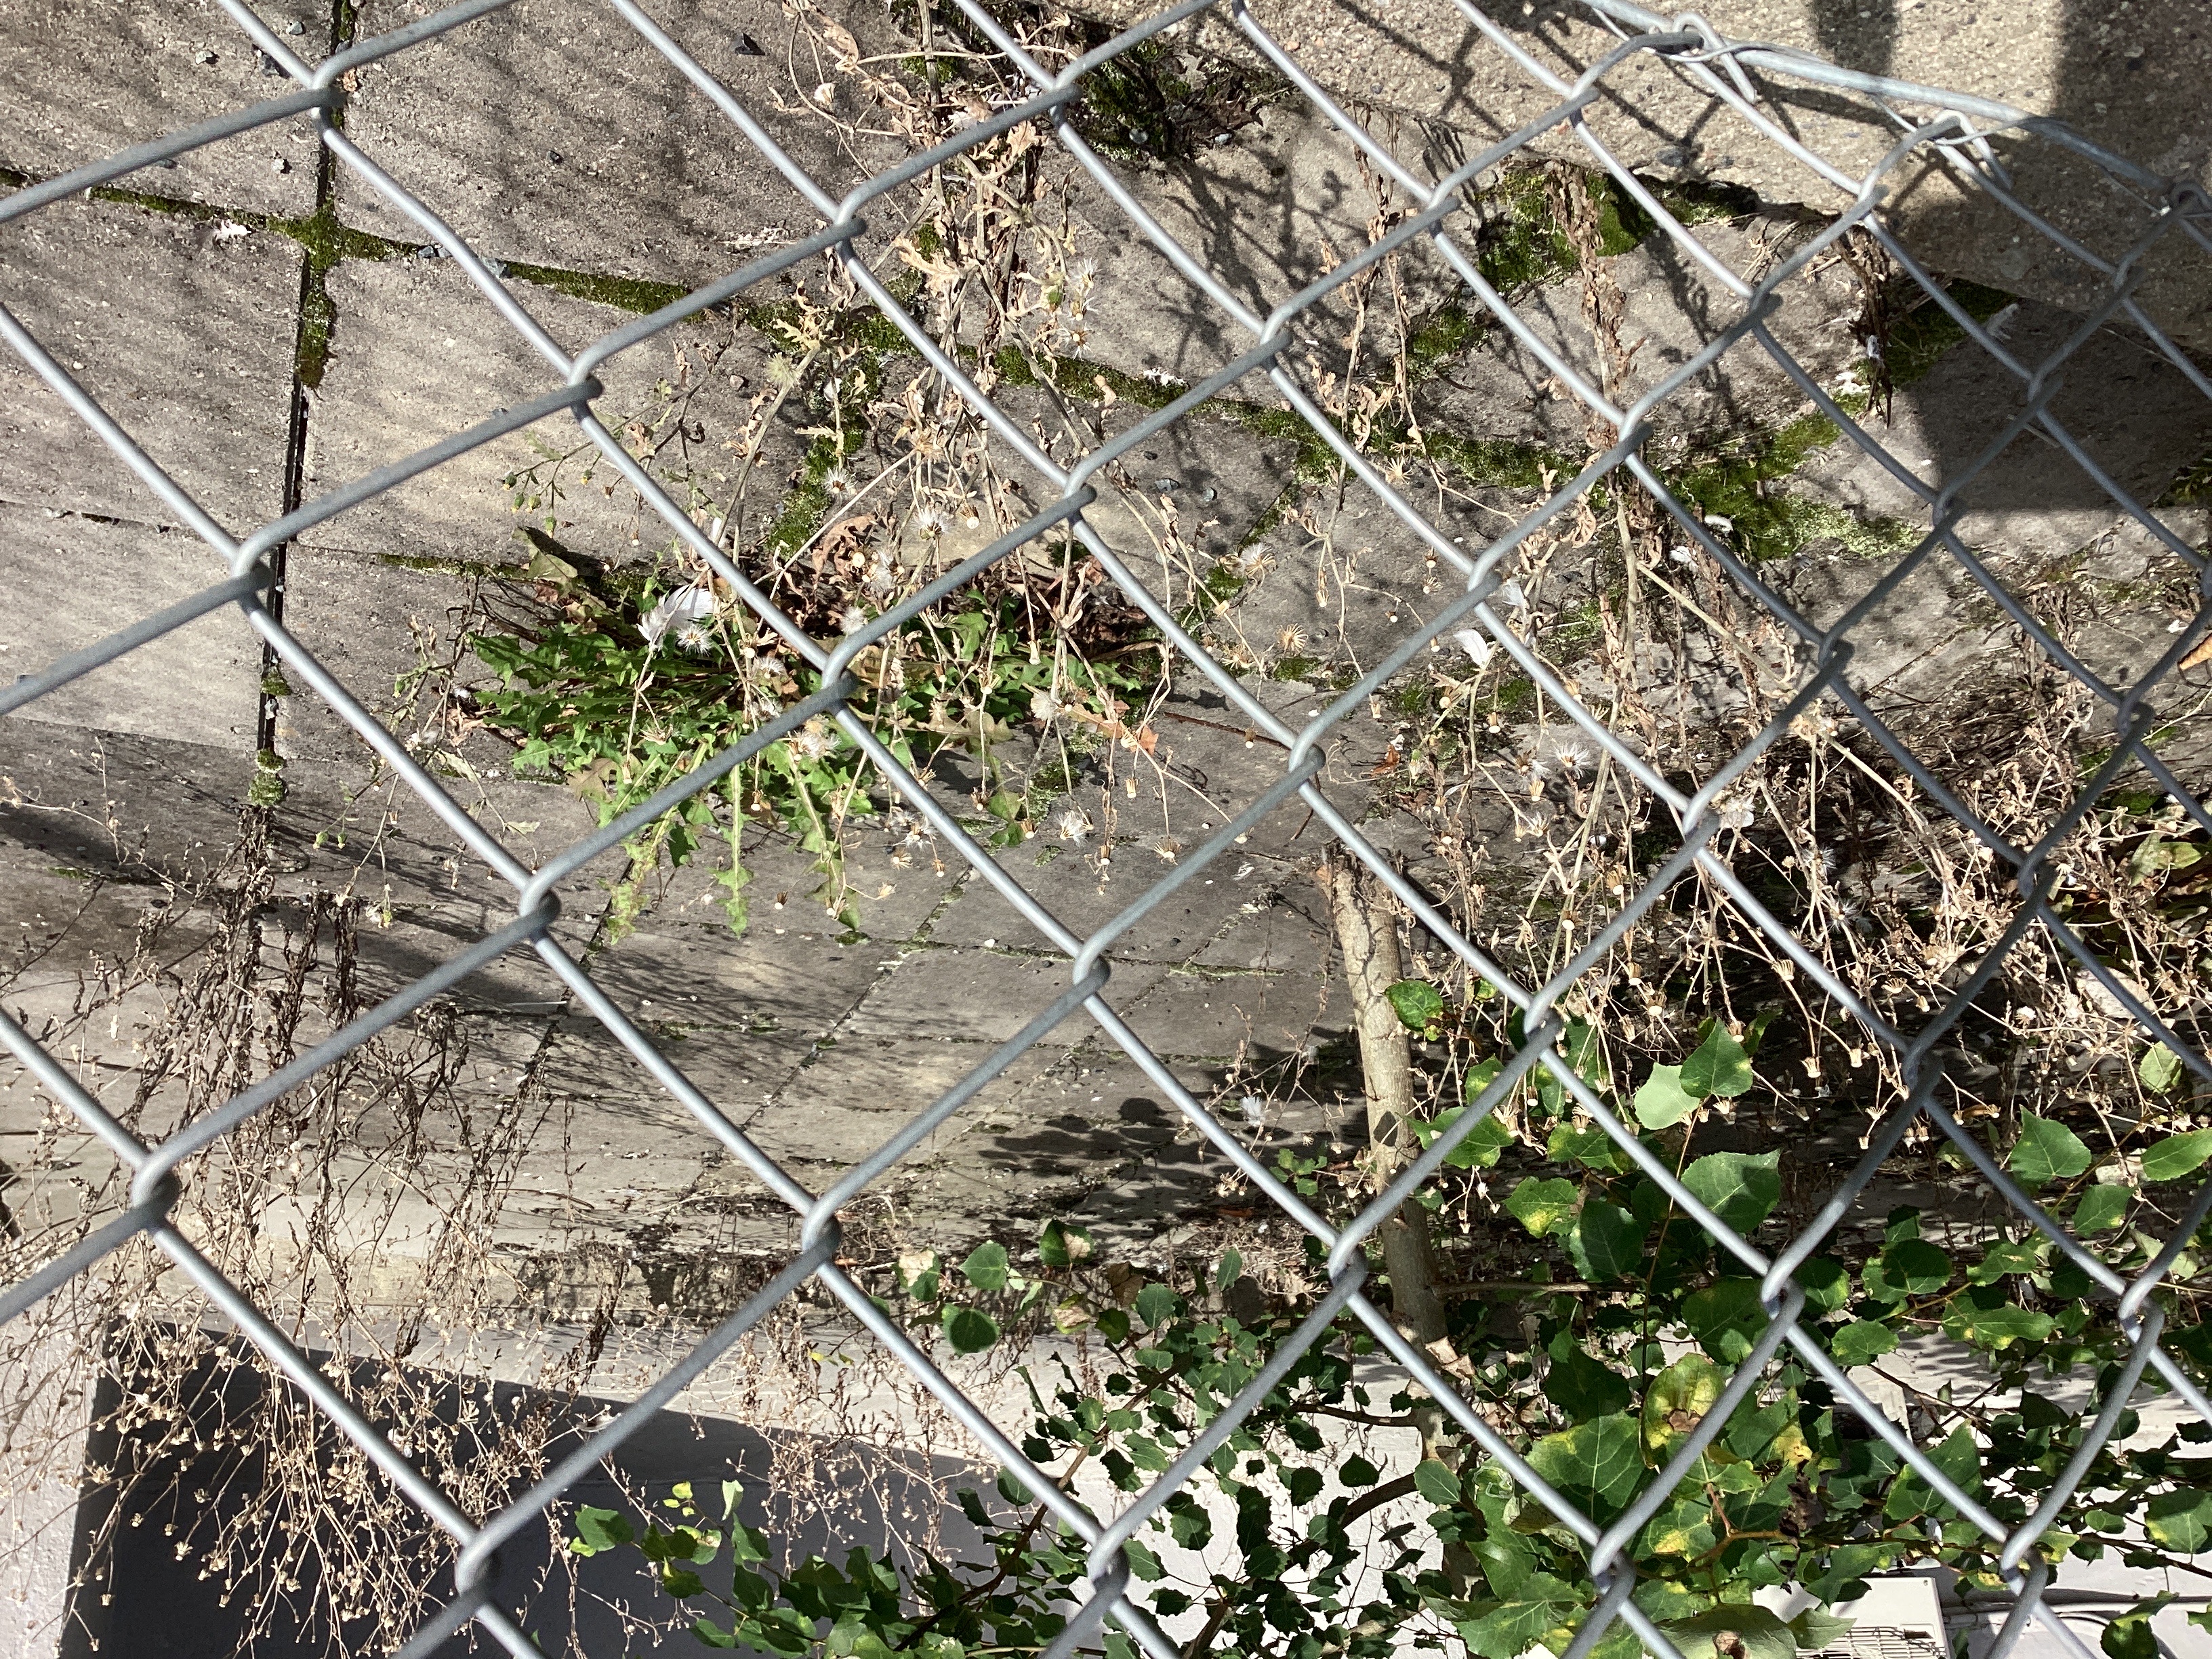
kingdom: Plantae
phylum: Tracheophyta
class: Magnoliopsida
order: Asterales
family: Asteraceae
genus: Senecio
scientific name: Senecio viscosus
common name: klistersvineblom
